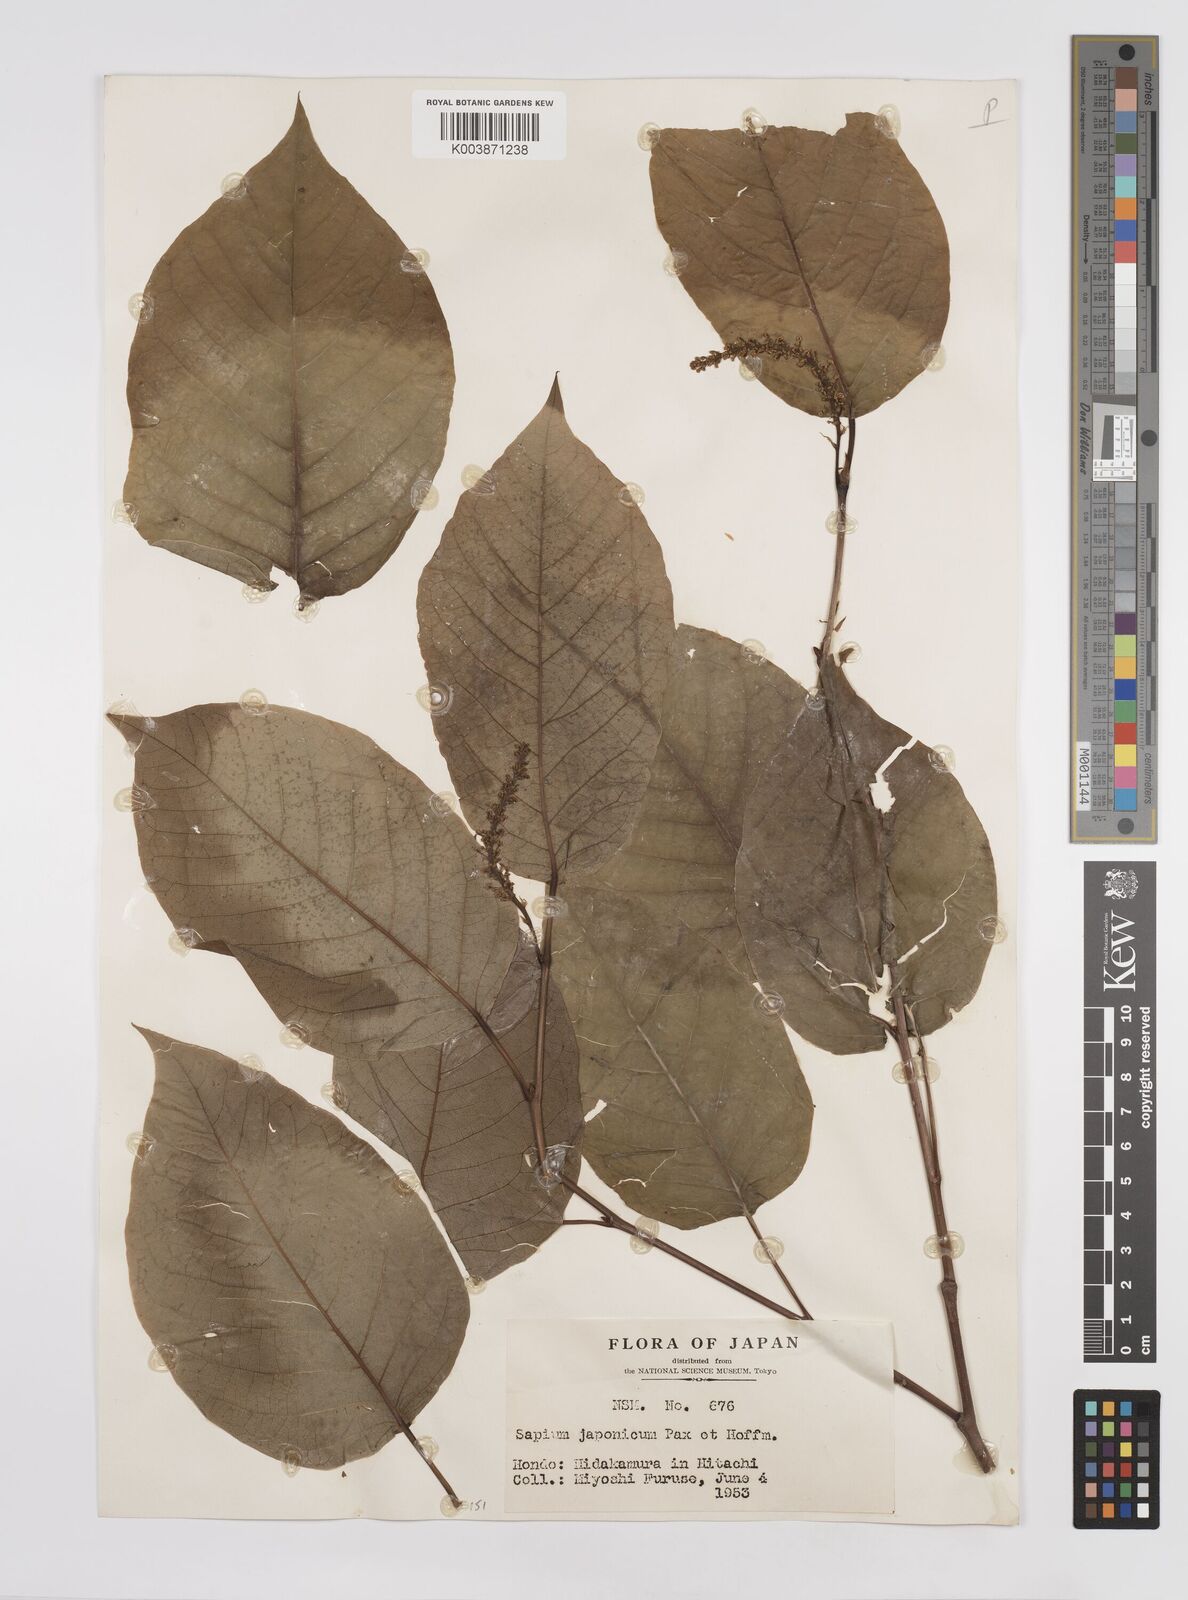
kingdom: Plantae
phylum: Tracheophyta
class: Magnoliopsida
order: Malpighiales
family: Euphorbiaceae
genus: Neoshirakia
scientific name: Neoshirakia japonica
